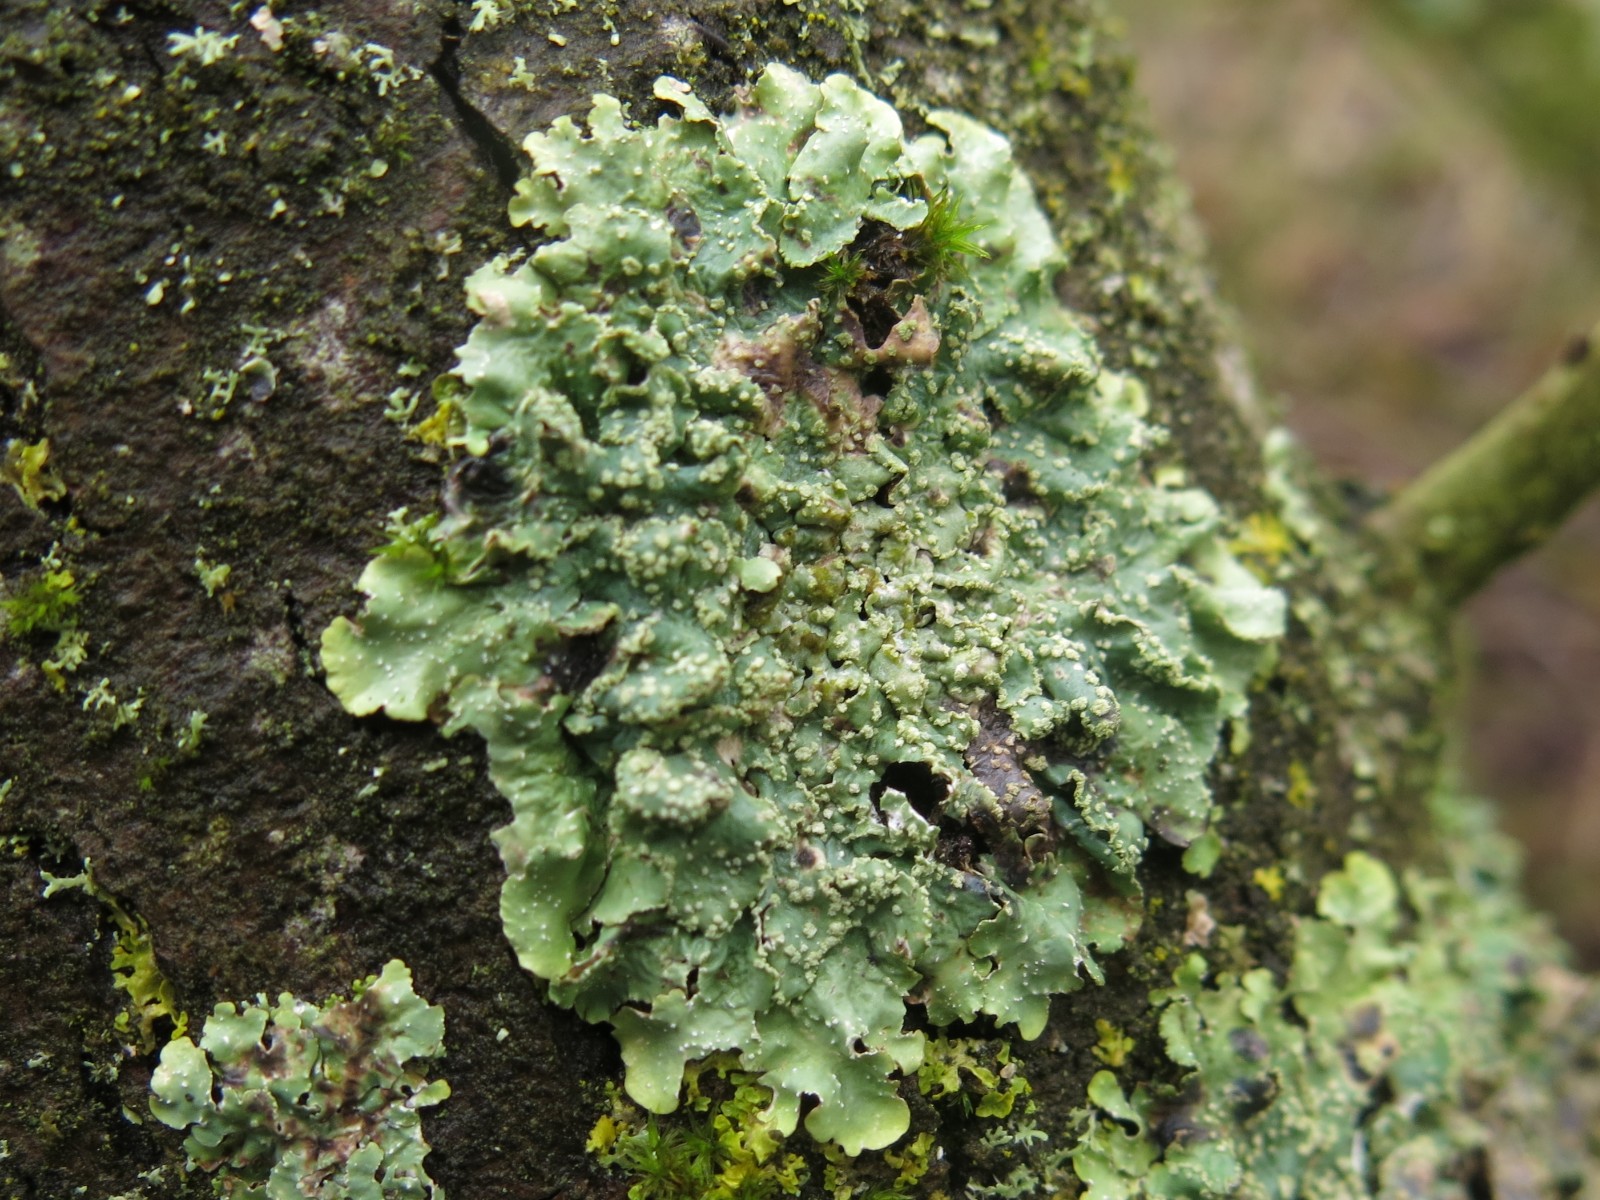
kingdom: Fungi
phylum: Ascomycota
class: Lecanoromycetes
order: Lecanorales
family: Parmeliaceae
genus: Punctelia
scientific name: Punctelia subrudecta
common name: punkt-skållav
